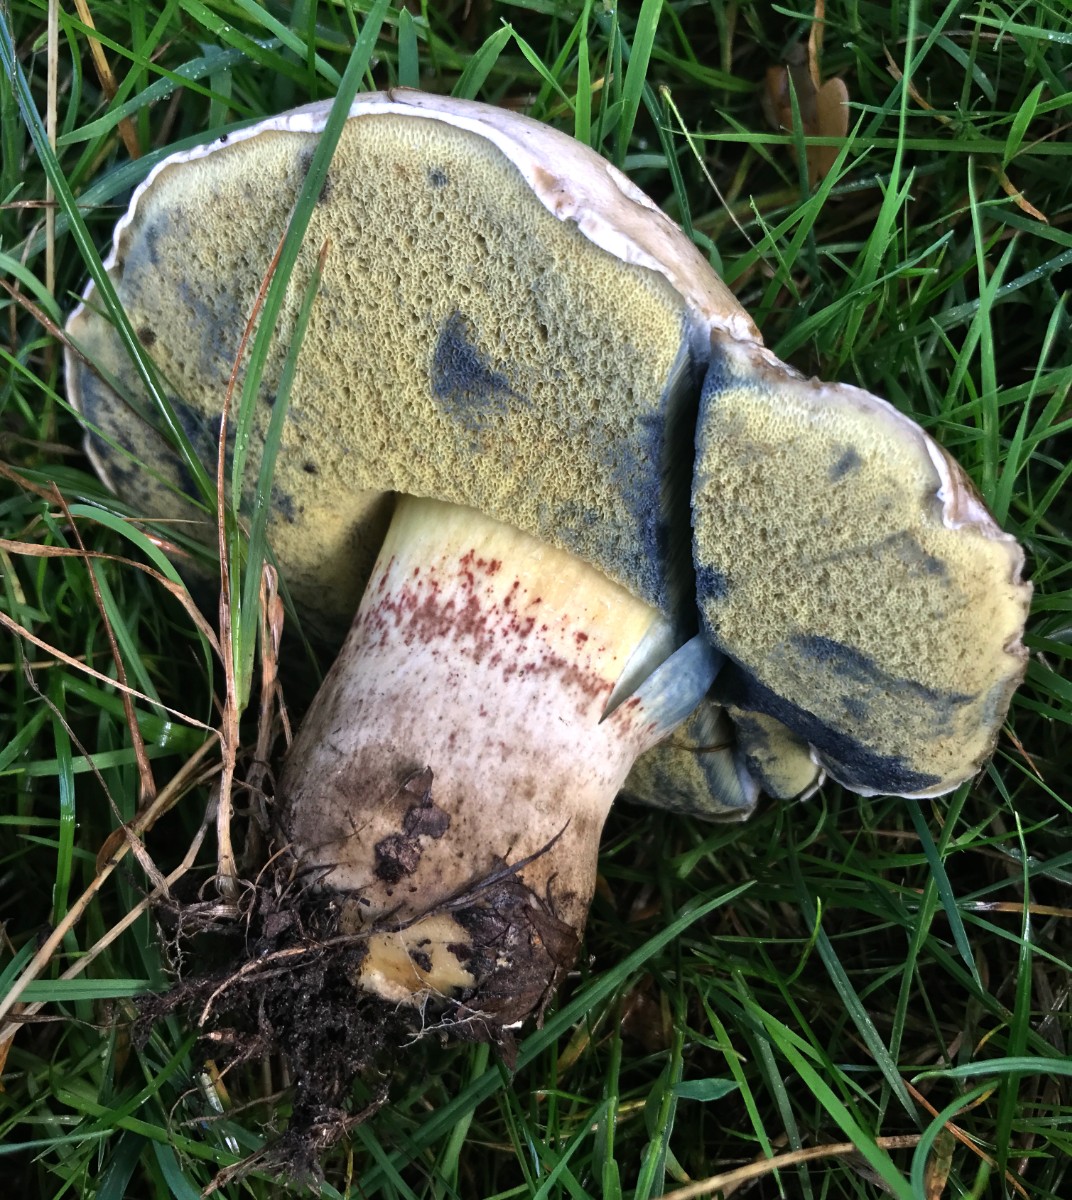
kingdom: Fungi
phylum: Basidiomycota
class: Agaricomycetes
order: Boletales
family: Boletaceae
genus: Caloboletus
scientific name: Caloboletus radicans
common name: rod-rørhat
